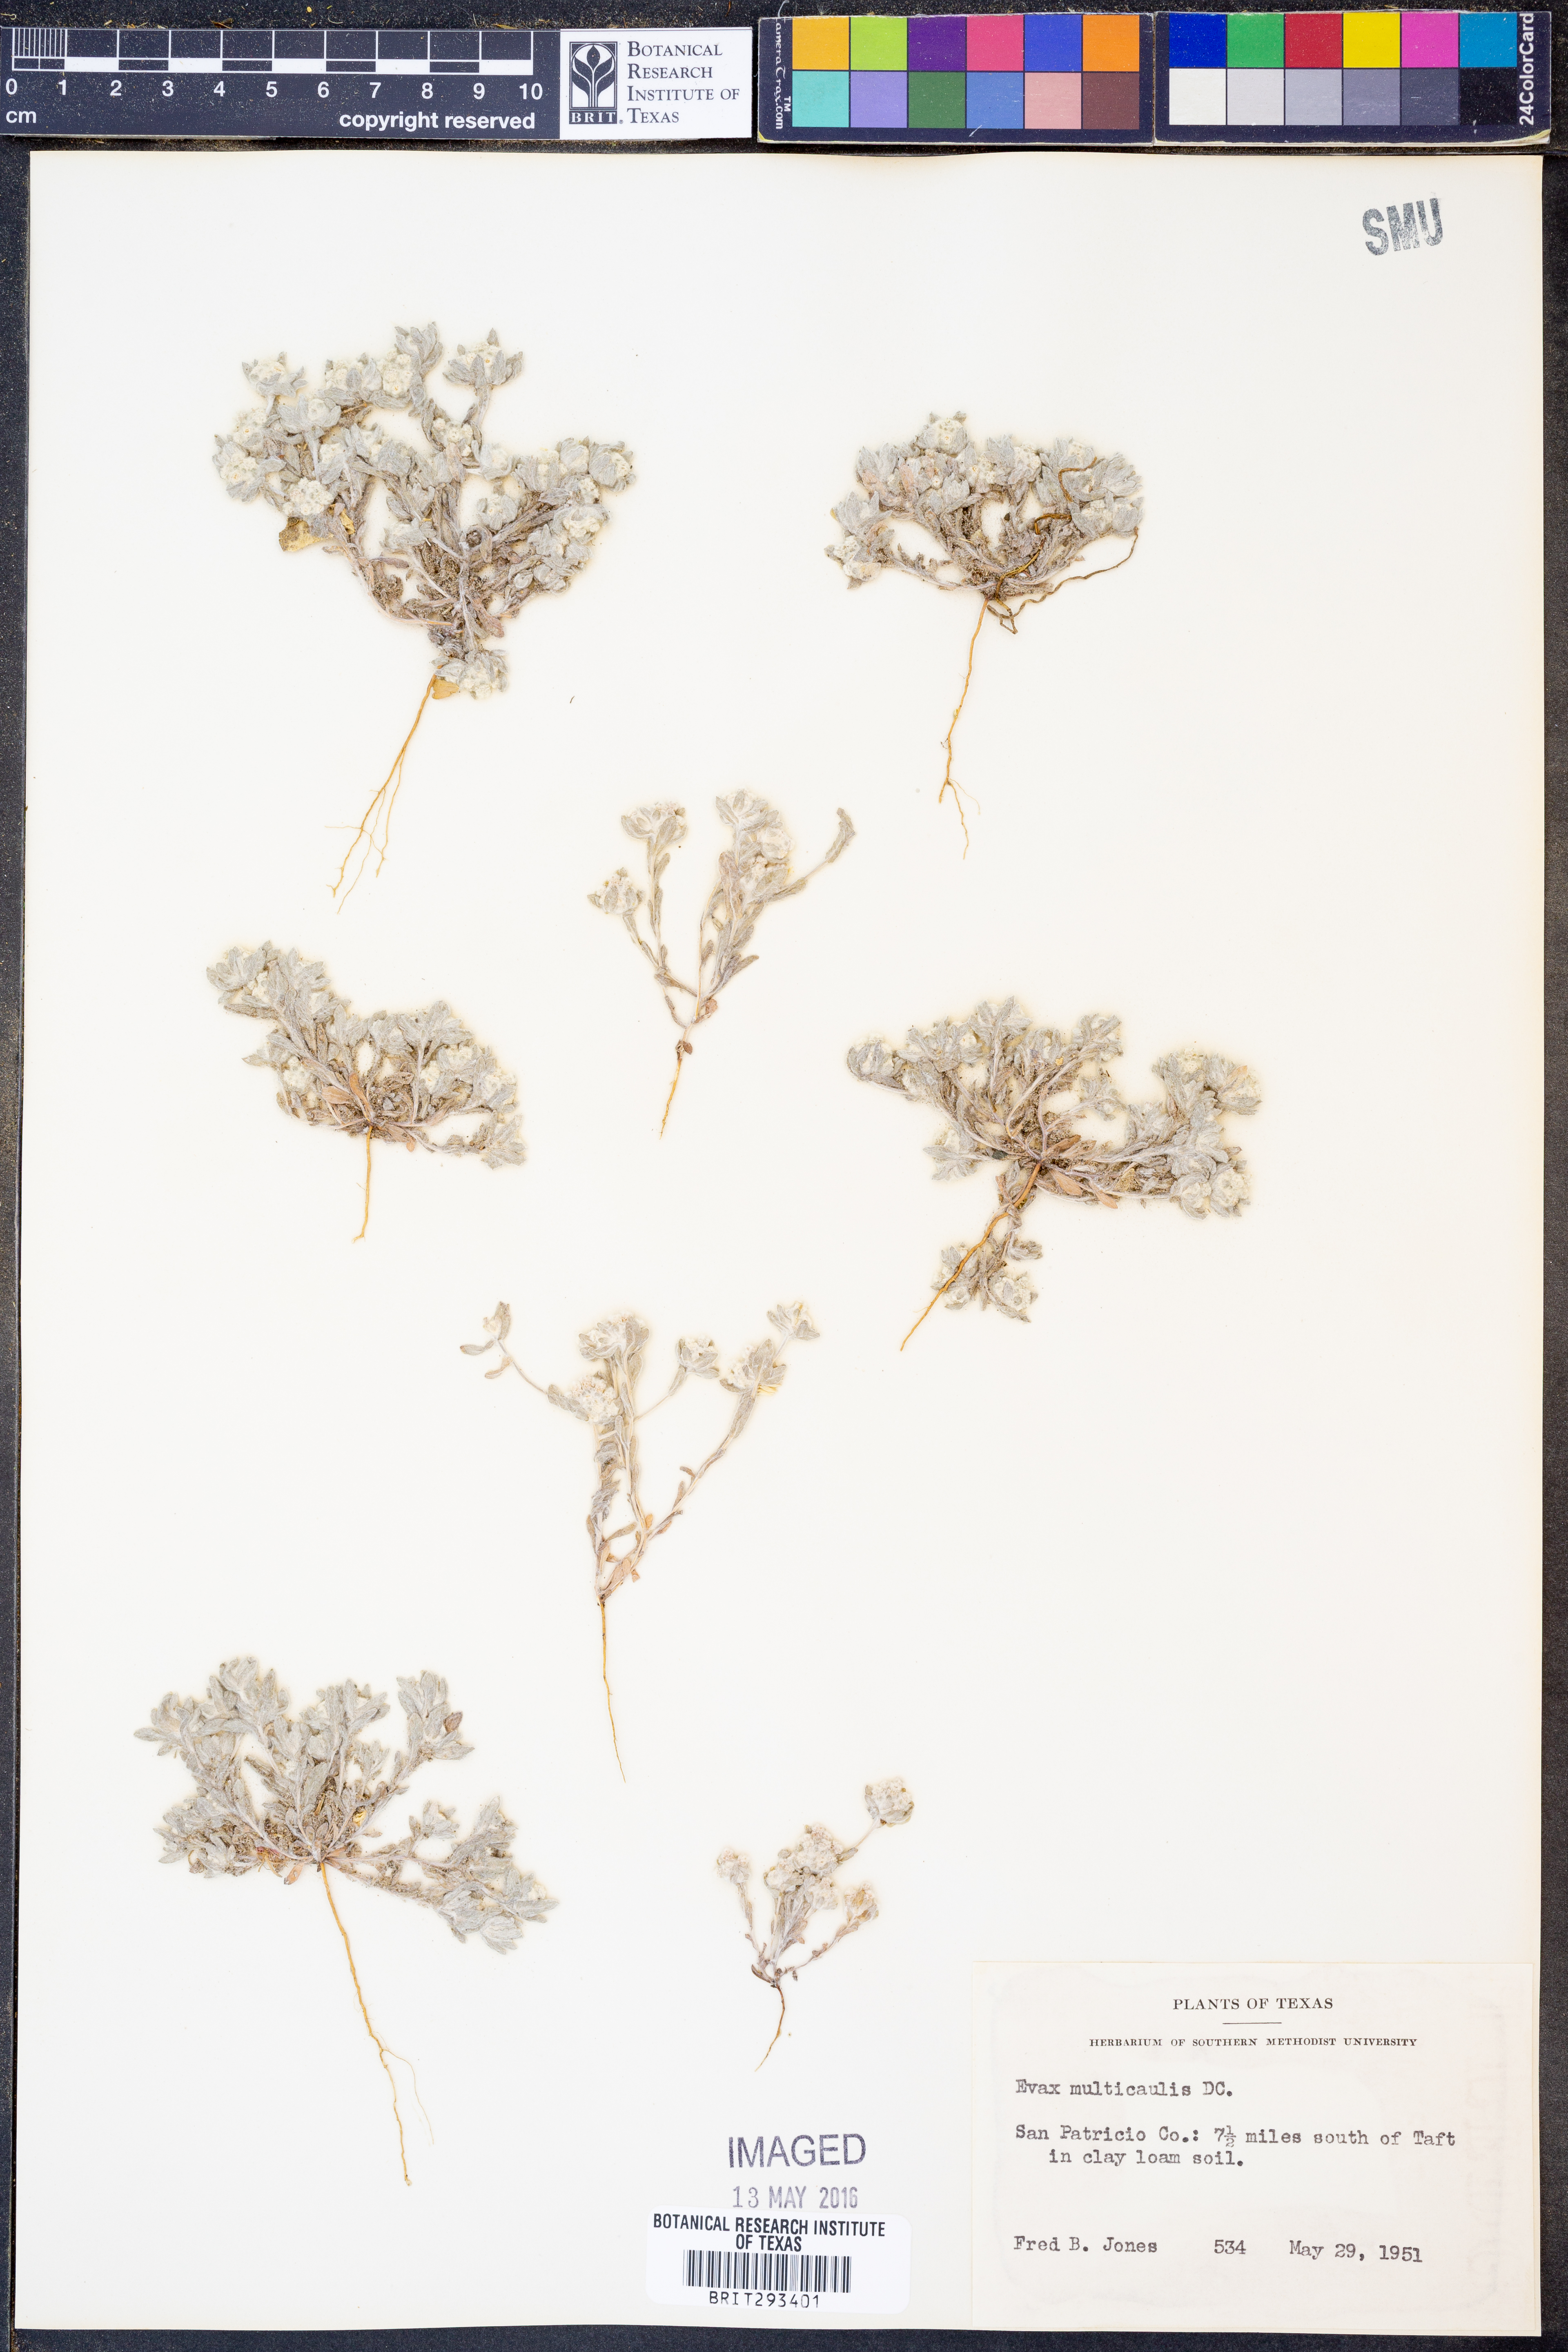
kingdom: Plantae
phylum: Tracheophyta
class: Magnoliopsida
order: Asterales
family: Asteraceae
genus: Diaperia
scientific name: Diaperia verna
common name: Many-stem rabbit-tobacco
